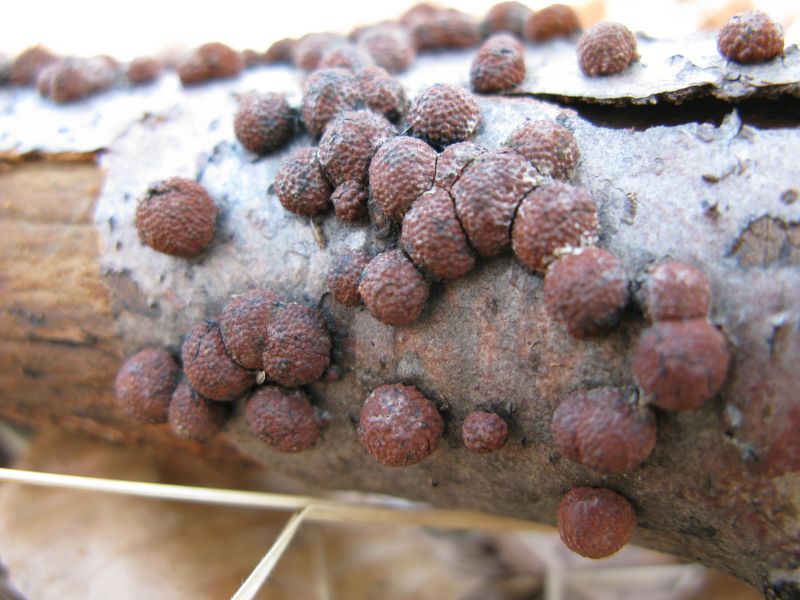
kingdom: Fungi
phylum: Ascomycota
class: Sordariomycetes
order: Xylariales
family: Hypoxylaceae
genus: Jackrogersella
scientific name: Jackrogersella multiformis
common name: foranderlig kulbær
